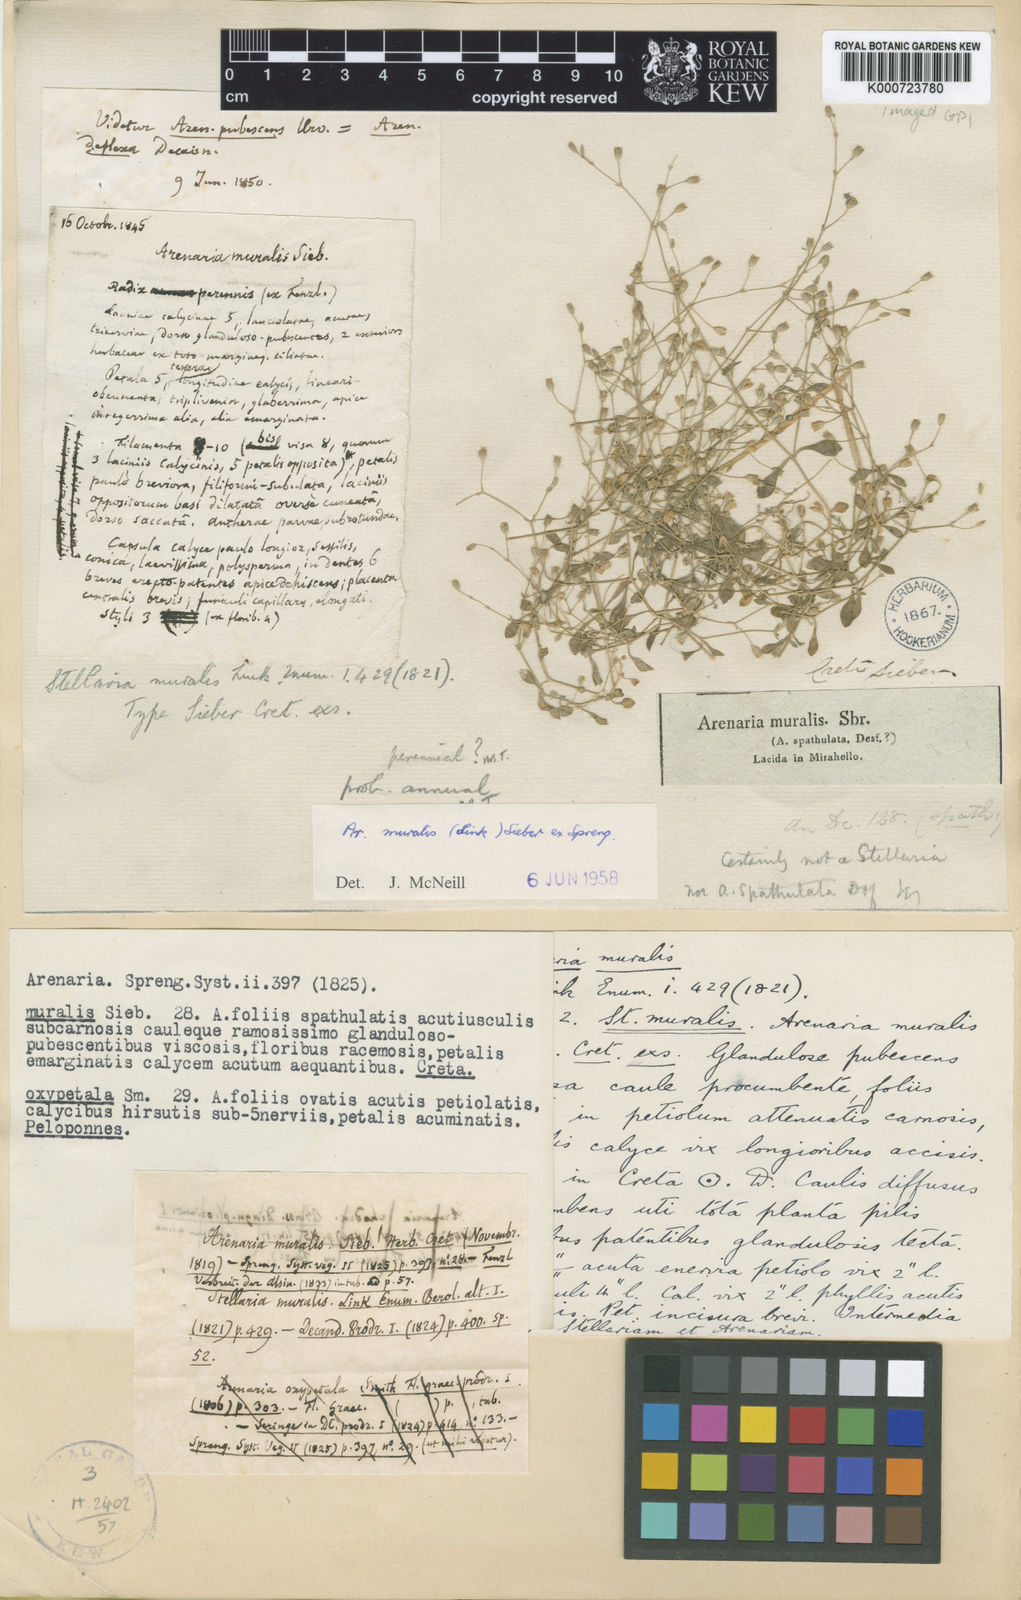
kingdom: Plantae
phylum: Tracheophyta
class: Magnoliopsida
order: Caryophyllales
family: Caryophyllaceae
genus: Arenaria
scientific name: Arenaria muralis
